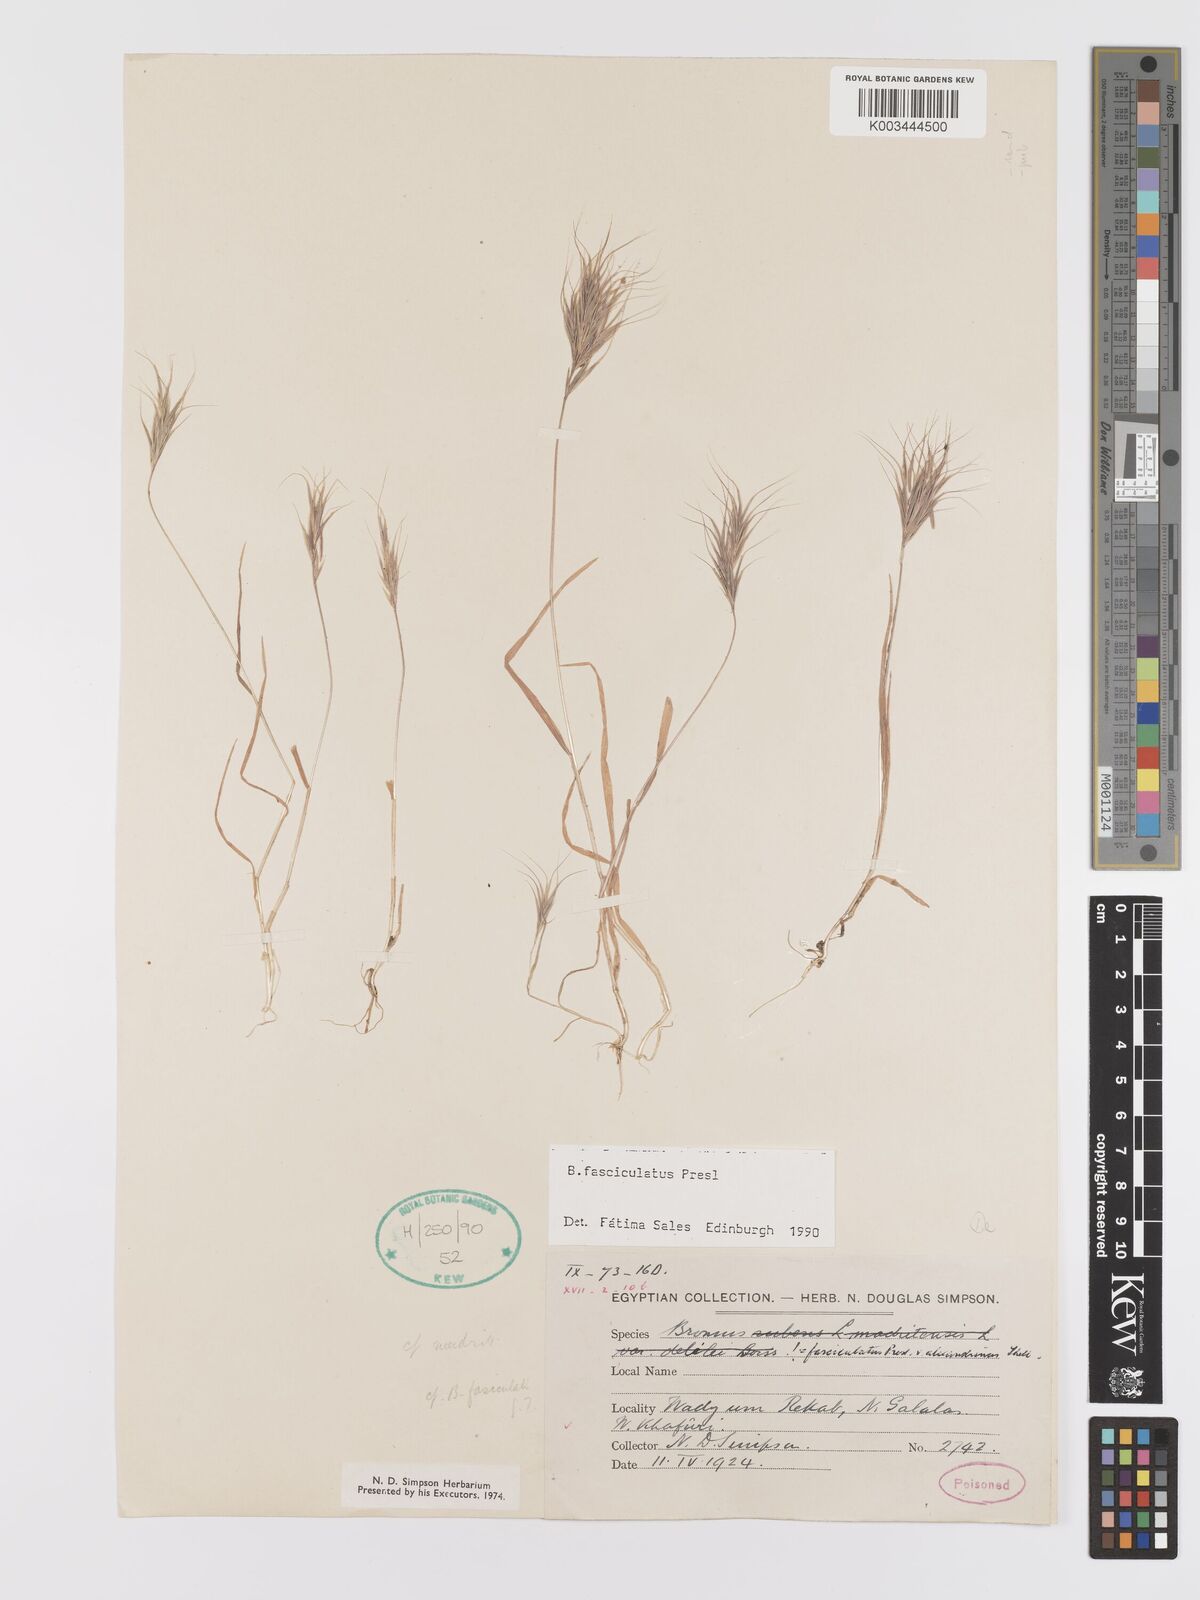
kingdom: Plantae
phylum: Tracheophyta
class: Liliopsida
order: Poales
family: Poaceae
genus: Bromus
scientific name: Bromus fasciculatus
